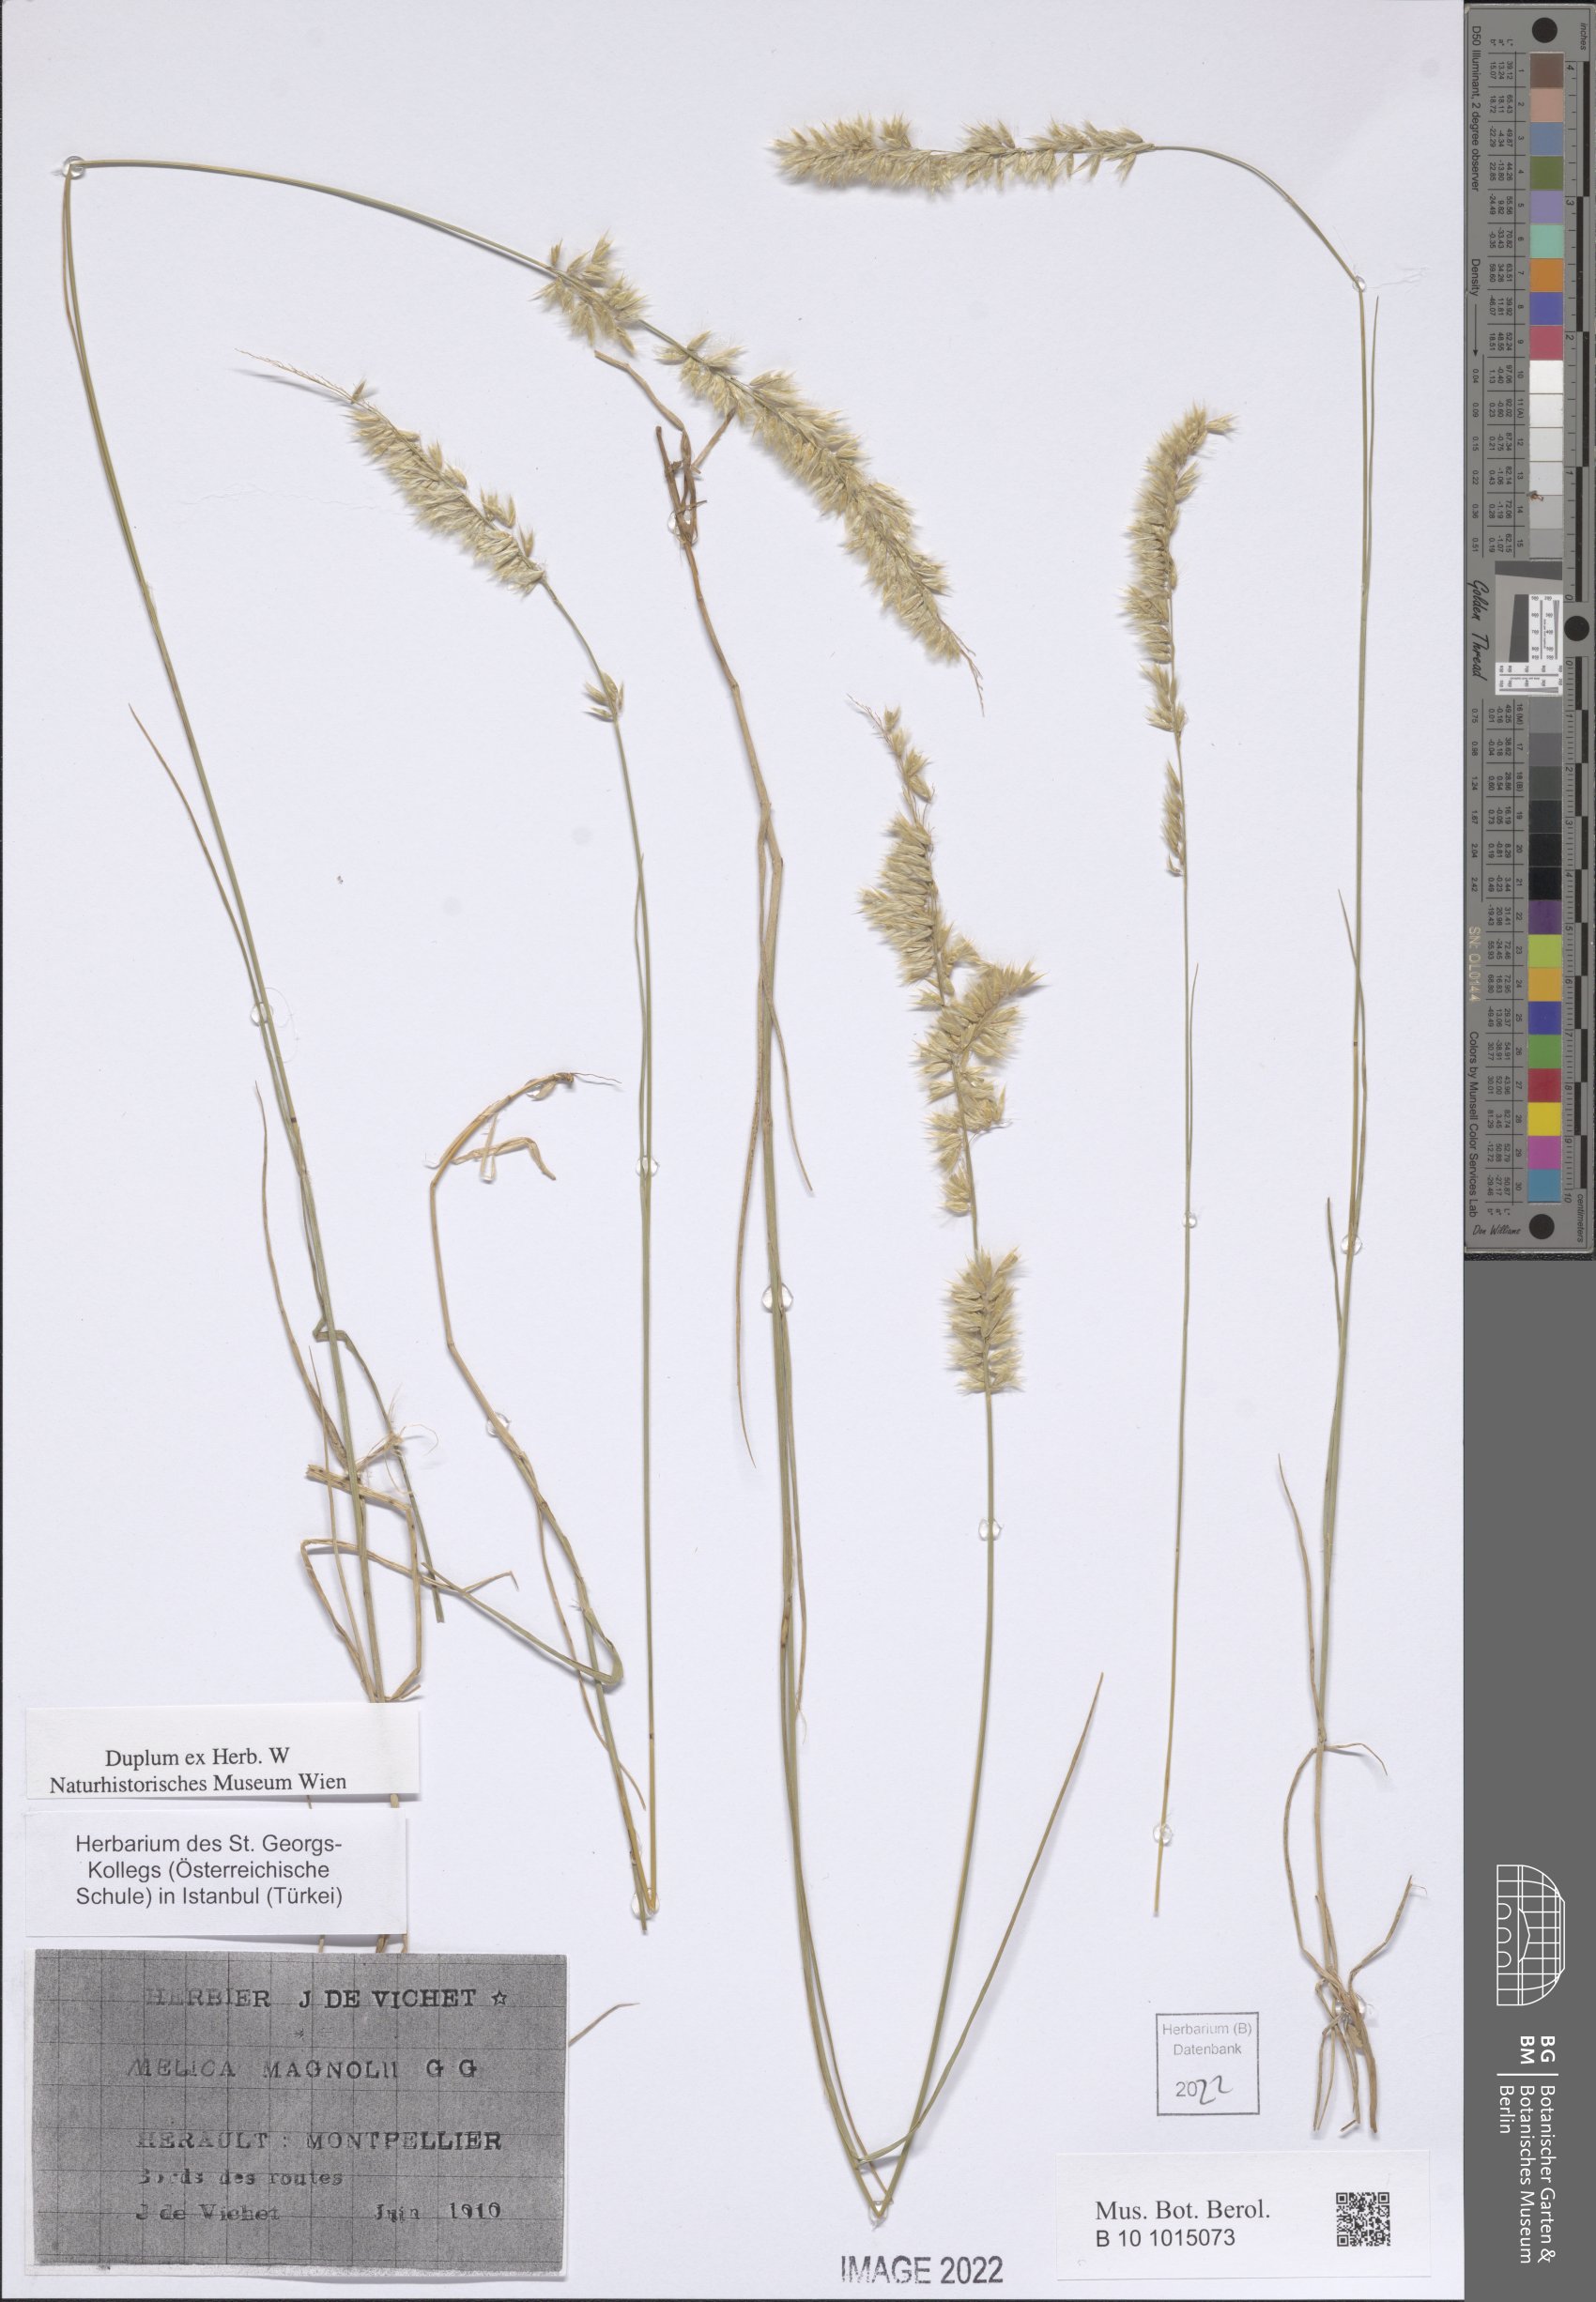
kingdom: Plantae
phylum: Tracheophyta
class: Liliopsida
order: Poales
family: Poaceae
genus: Melica
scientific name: Melica ciliata
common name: Hairy melicgrass
